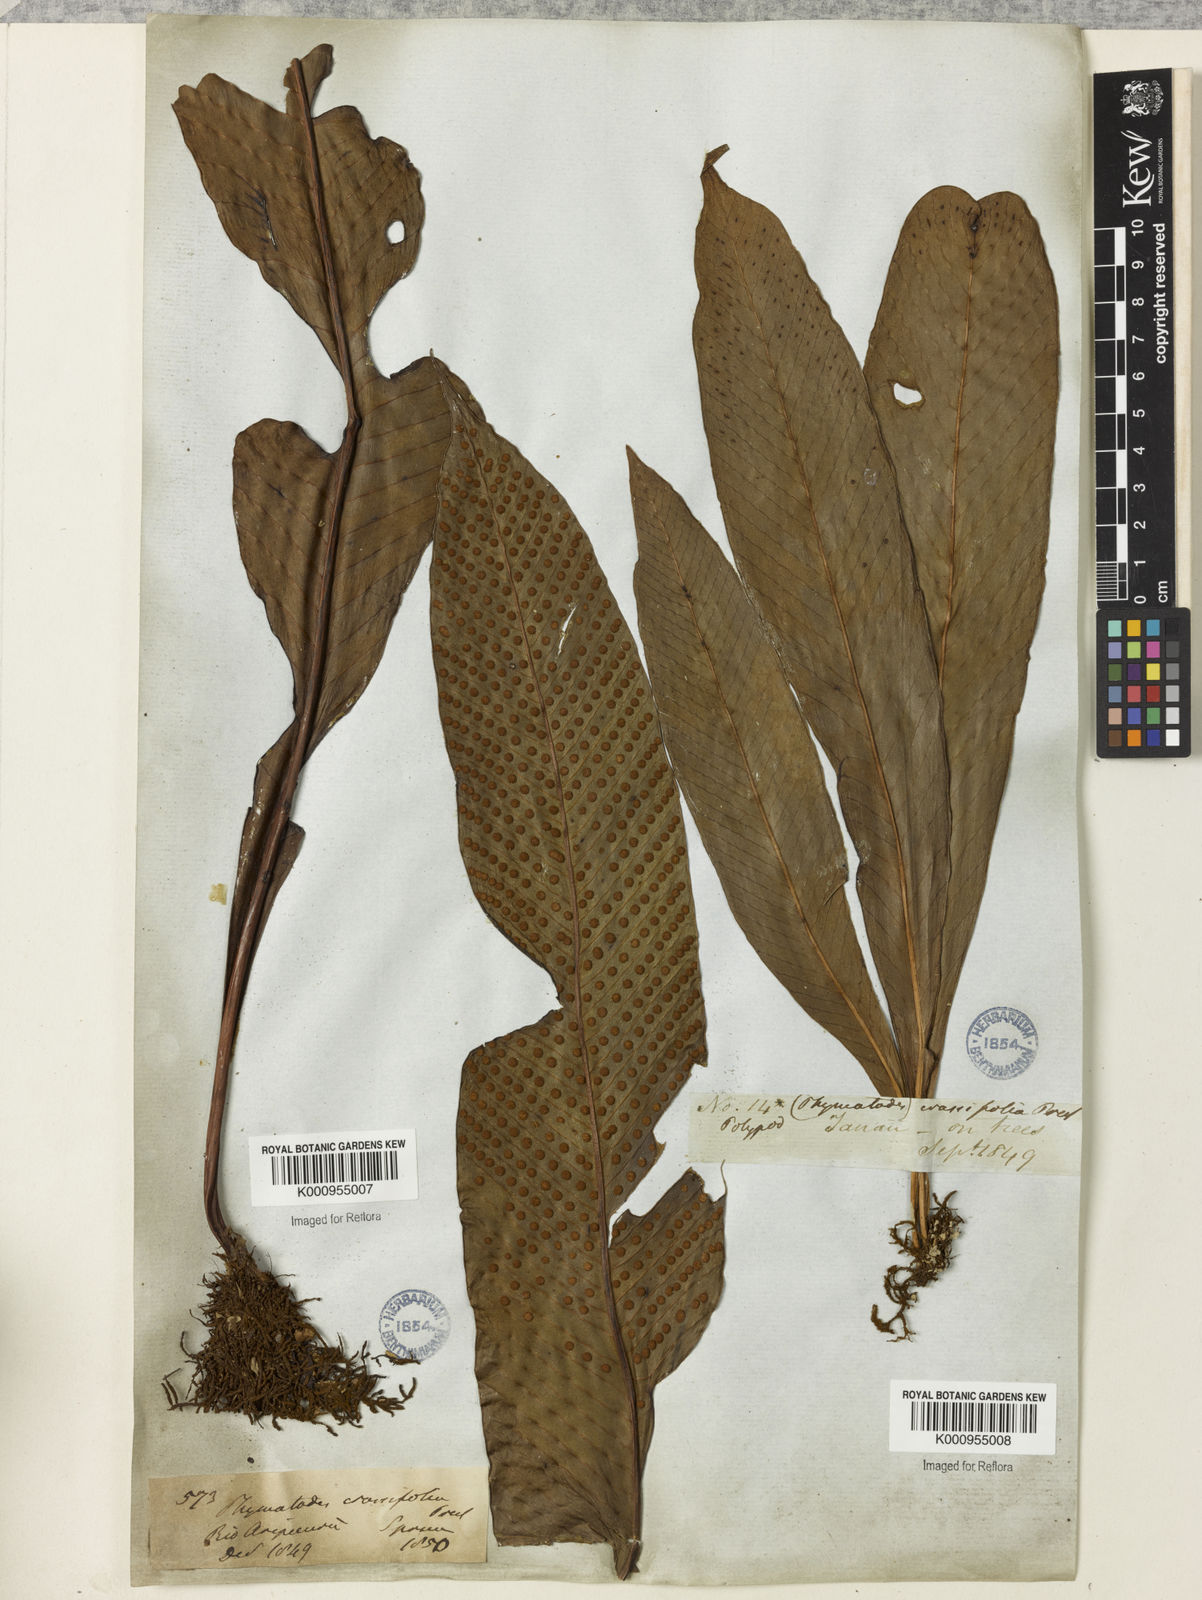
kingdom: Plantae
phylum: Tracheophyta
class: Polypodiopsida
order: Polypodiales
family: Polypodiaceae
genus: Niphidium
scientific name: Niphidium crassifolium
